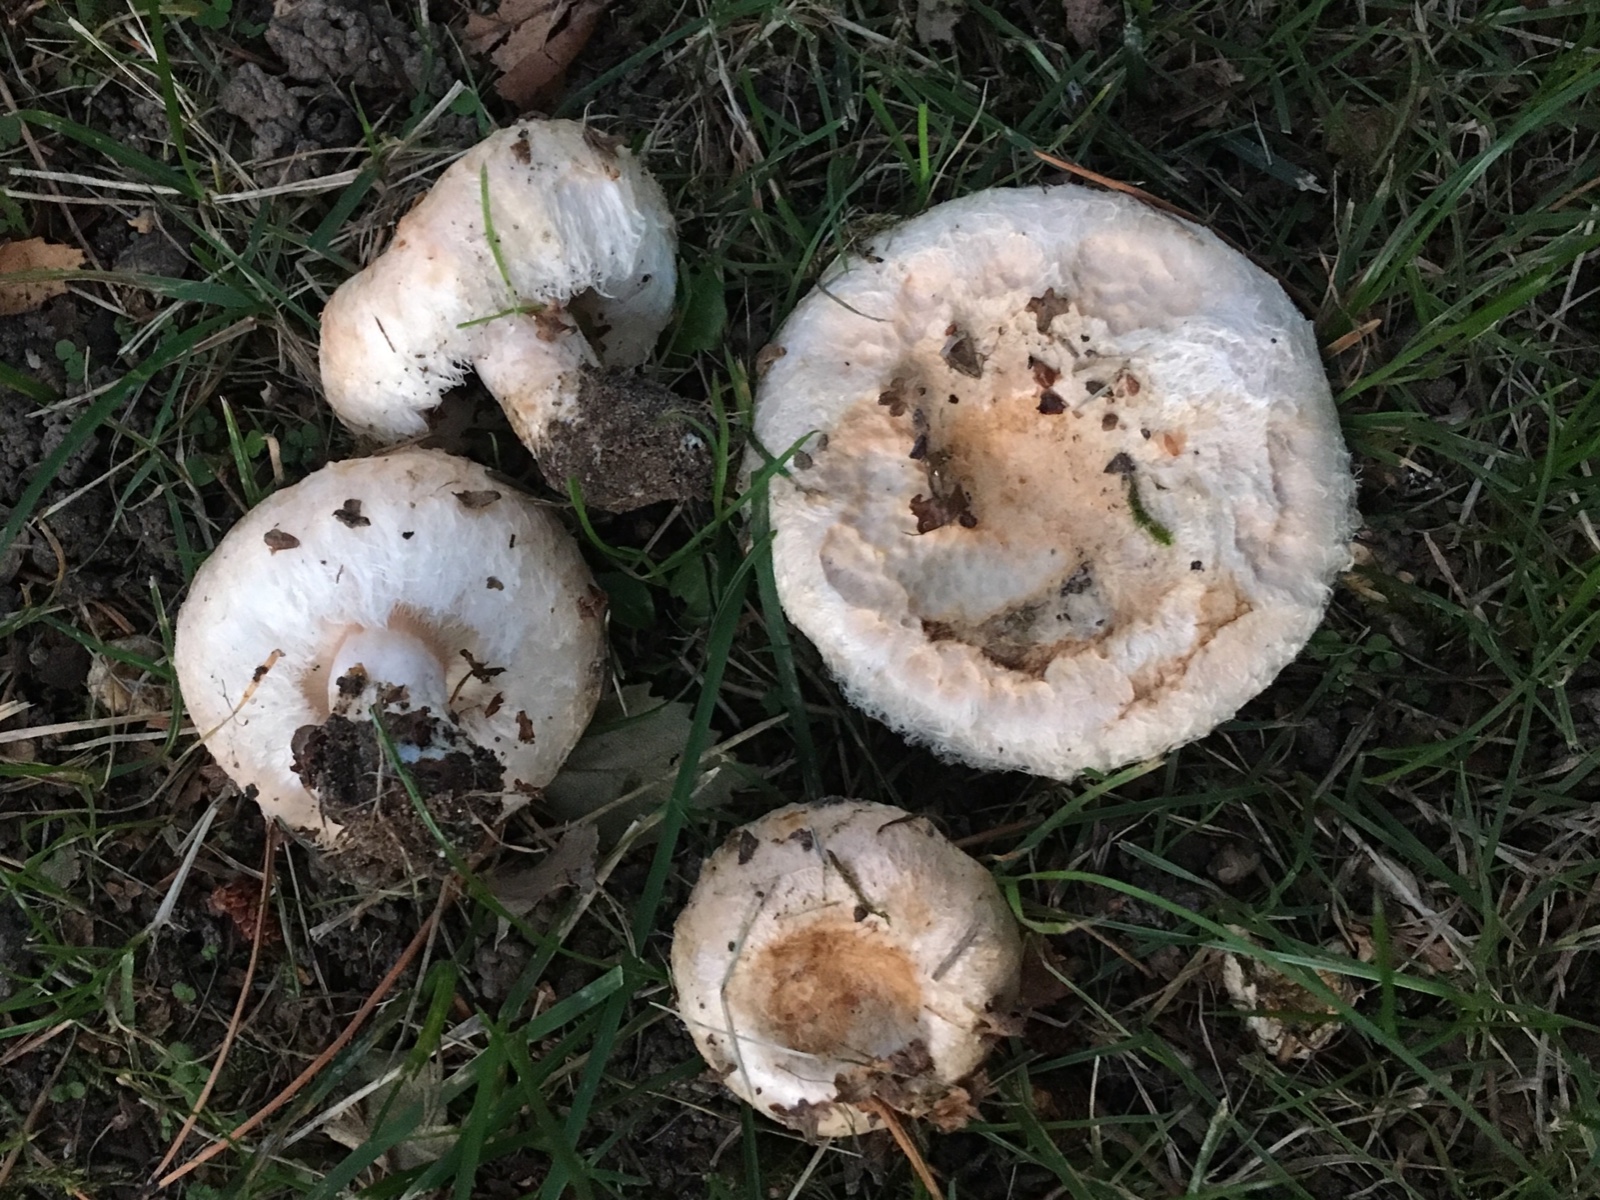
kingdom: Fungi
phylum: Basidiomycota
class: Agaricomycetes
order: Russulales
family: Russulaceae
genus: Lactarius
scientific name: Lactarius pubescens
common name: dunet mælkehat
